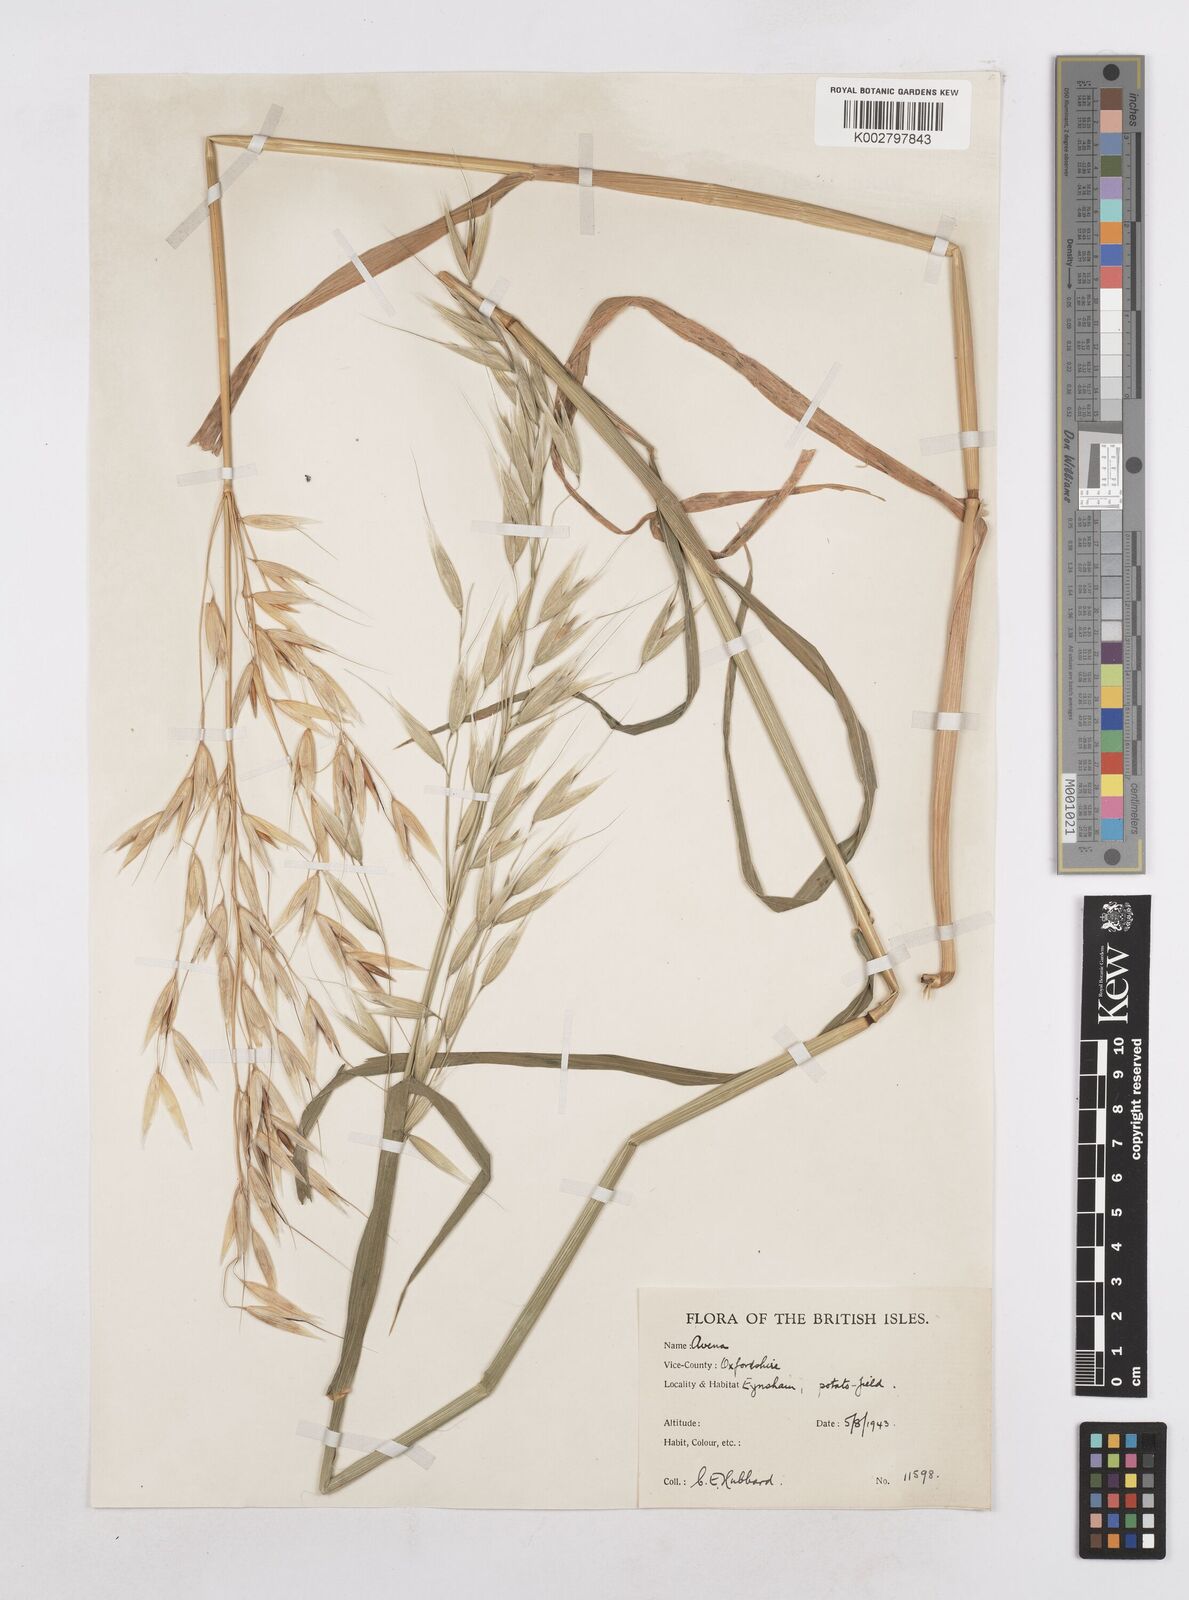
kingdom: Plantae
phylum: Tracheophyta
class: Liliopsida
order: Poales
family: Poaceae
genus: Avena
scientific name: Avena
